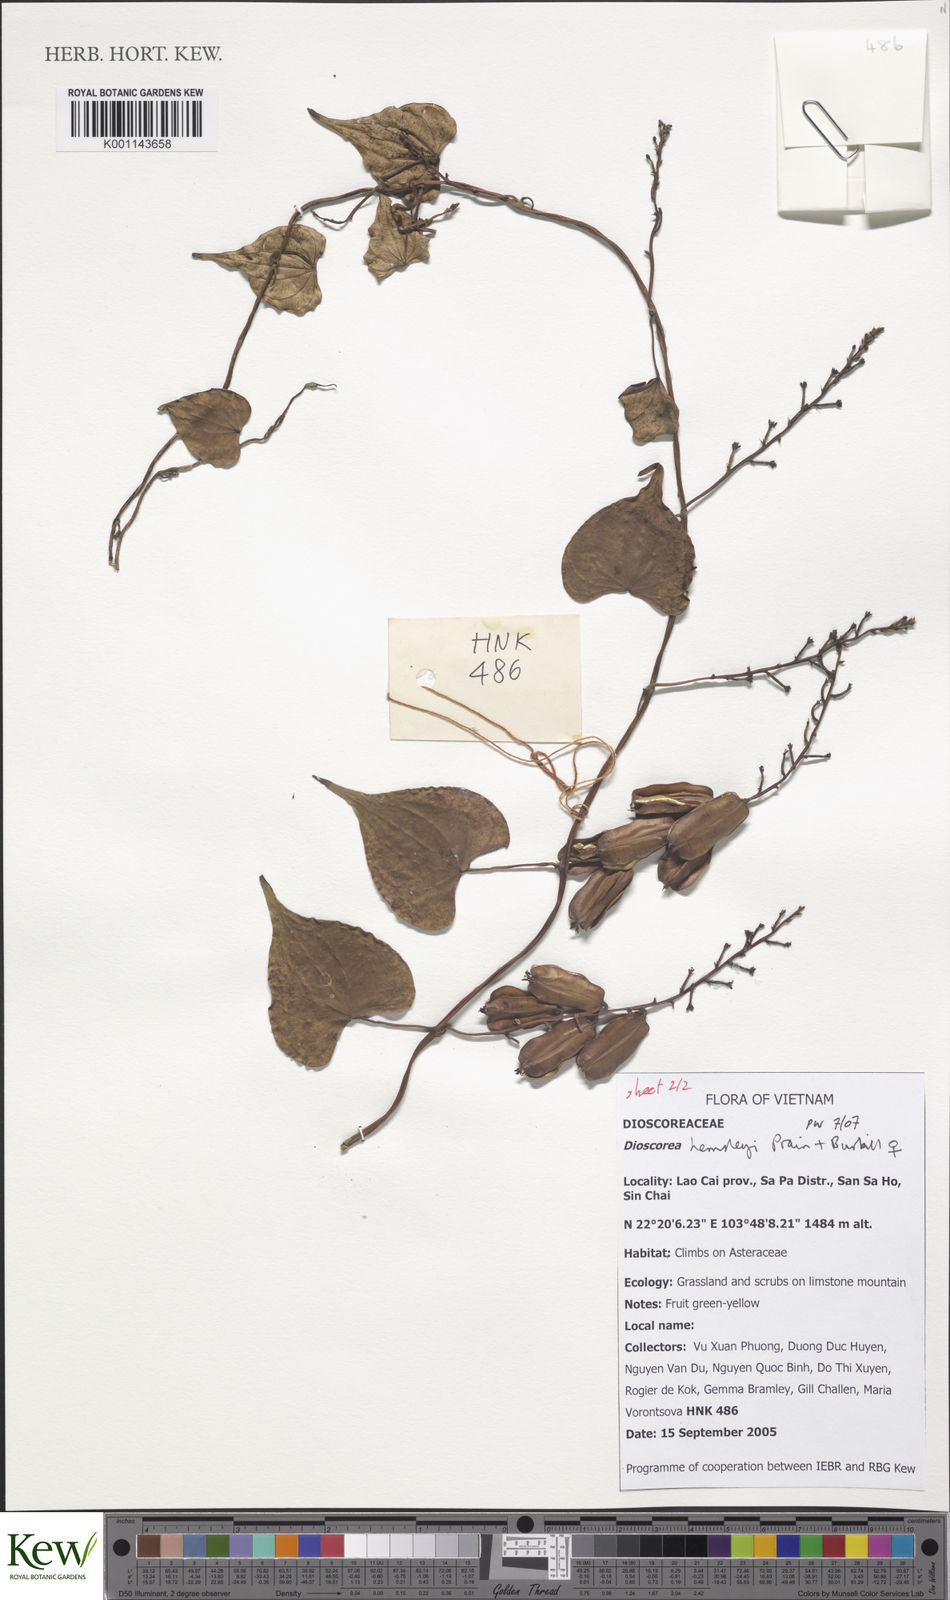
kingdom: Plantae
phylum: Tracheophyta
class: Liliopsida
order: Dioscoreales
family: Dioscoreaceae
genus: Dioscorea
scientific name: Dioscorea hemsleyi
